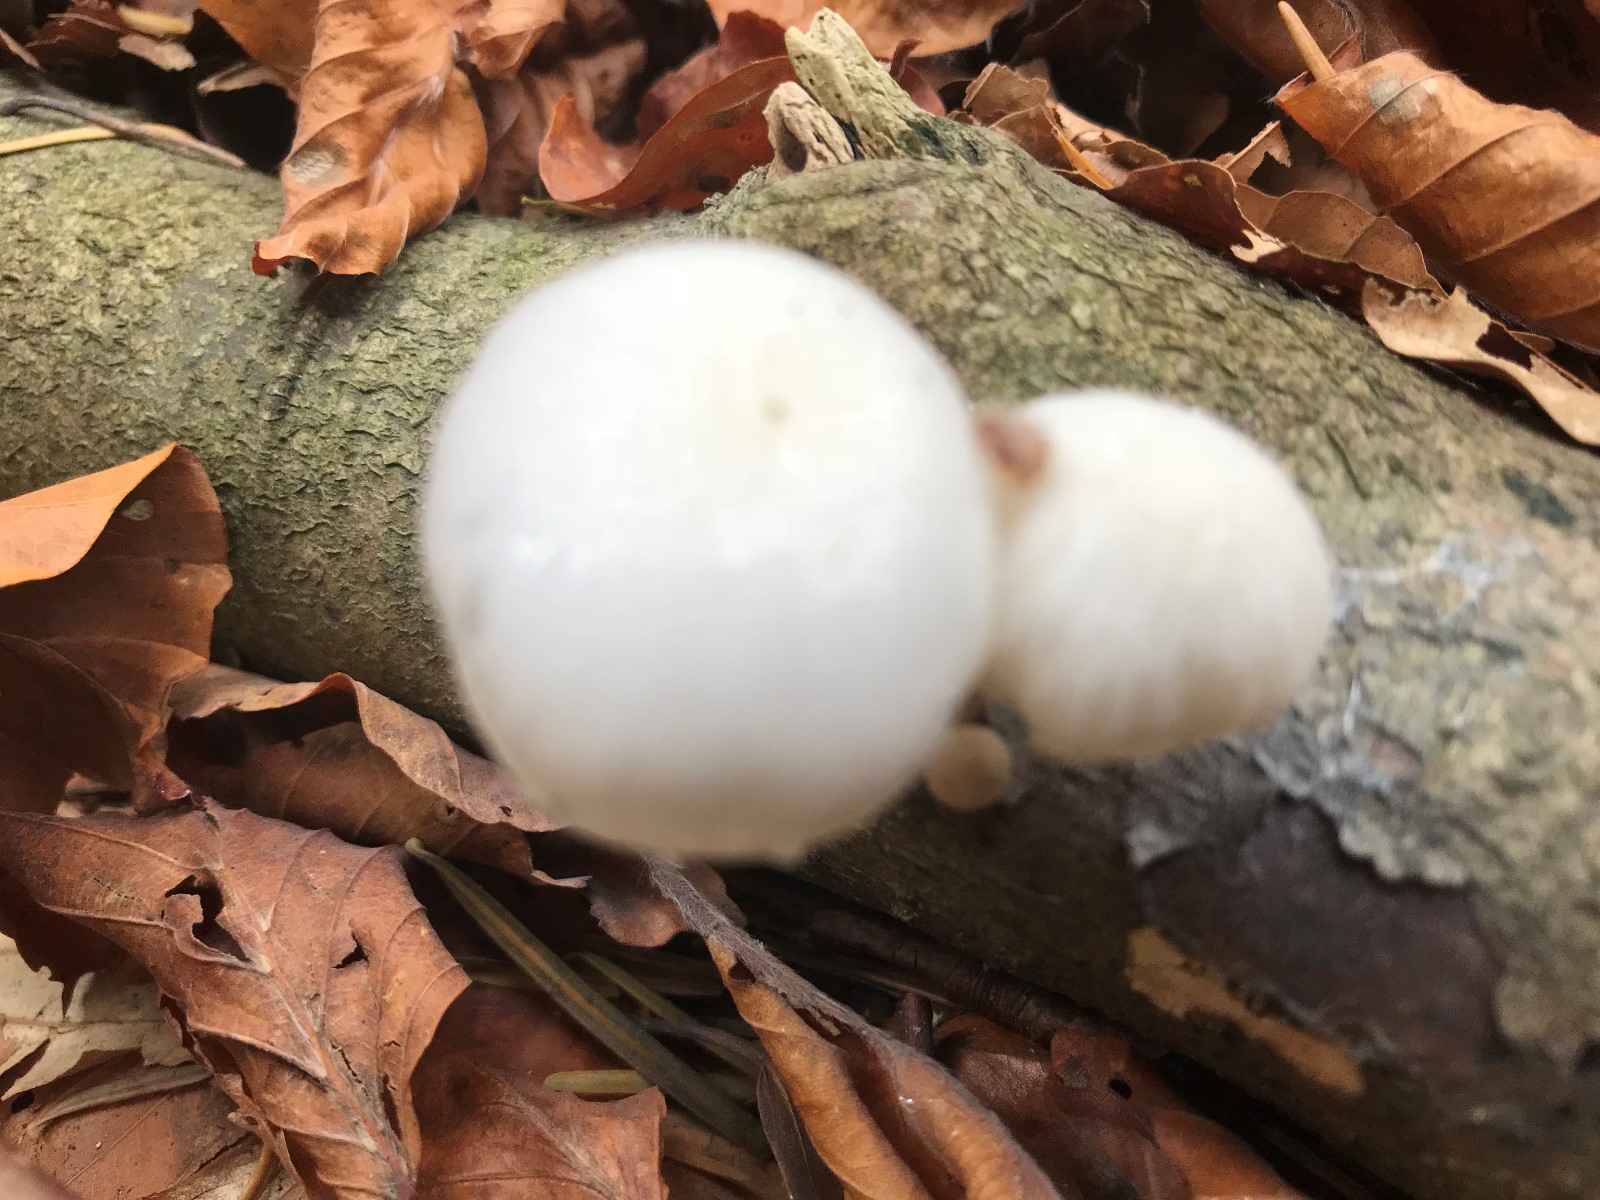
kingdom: Fungi
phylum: Basidiomycota
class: Agaricomycetes
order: Agaricales
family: Physalacriaceae
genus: Mucidula
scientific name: Mucidula mucida
